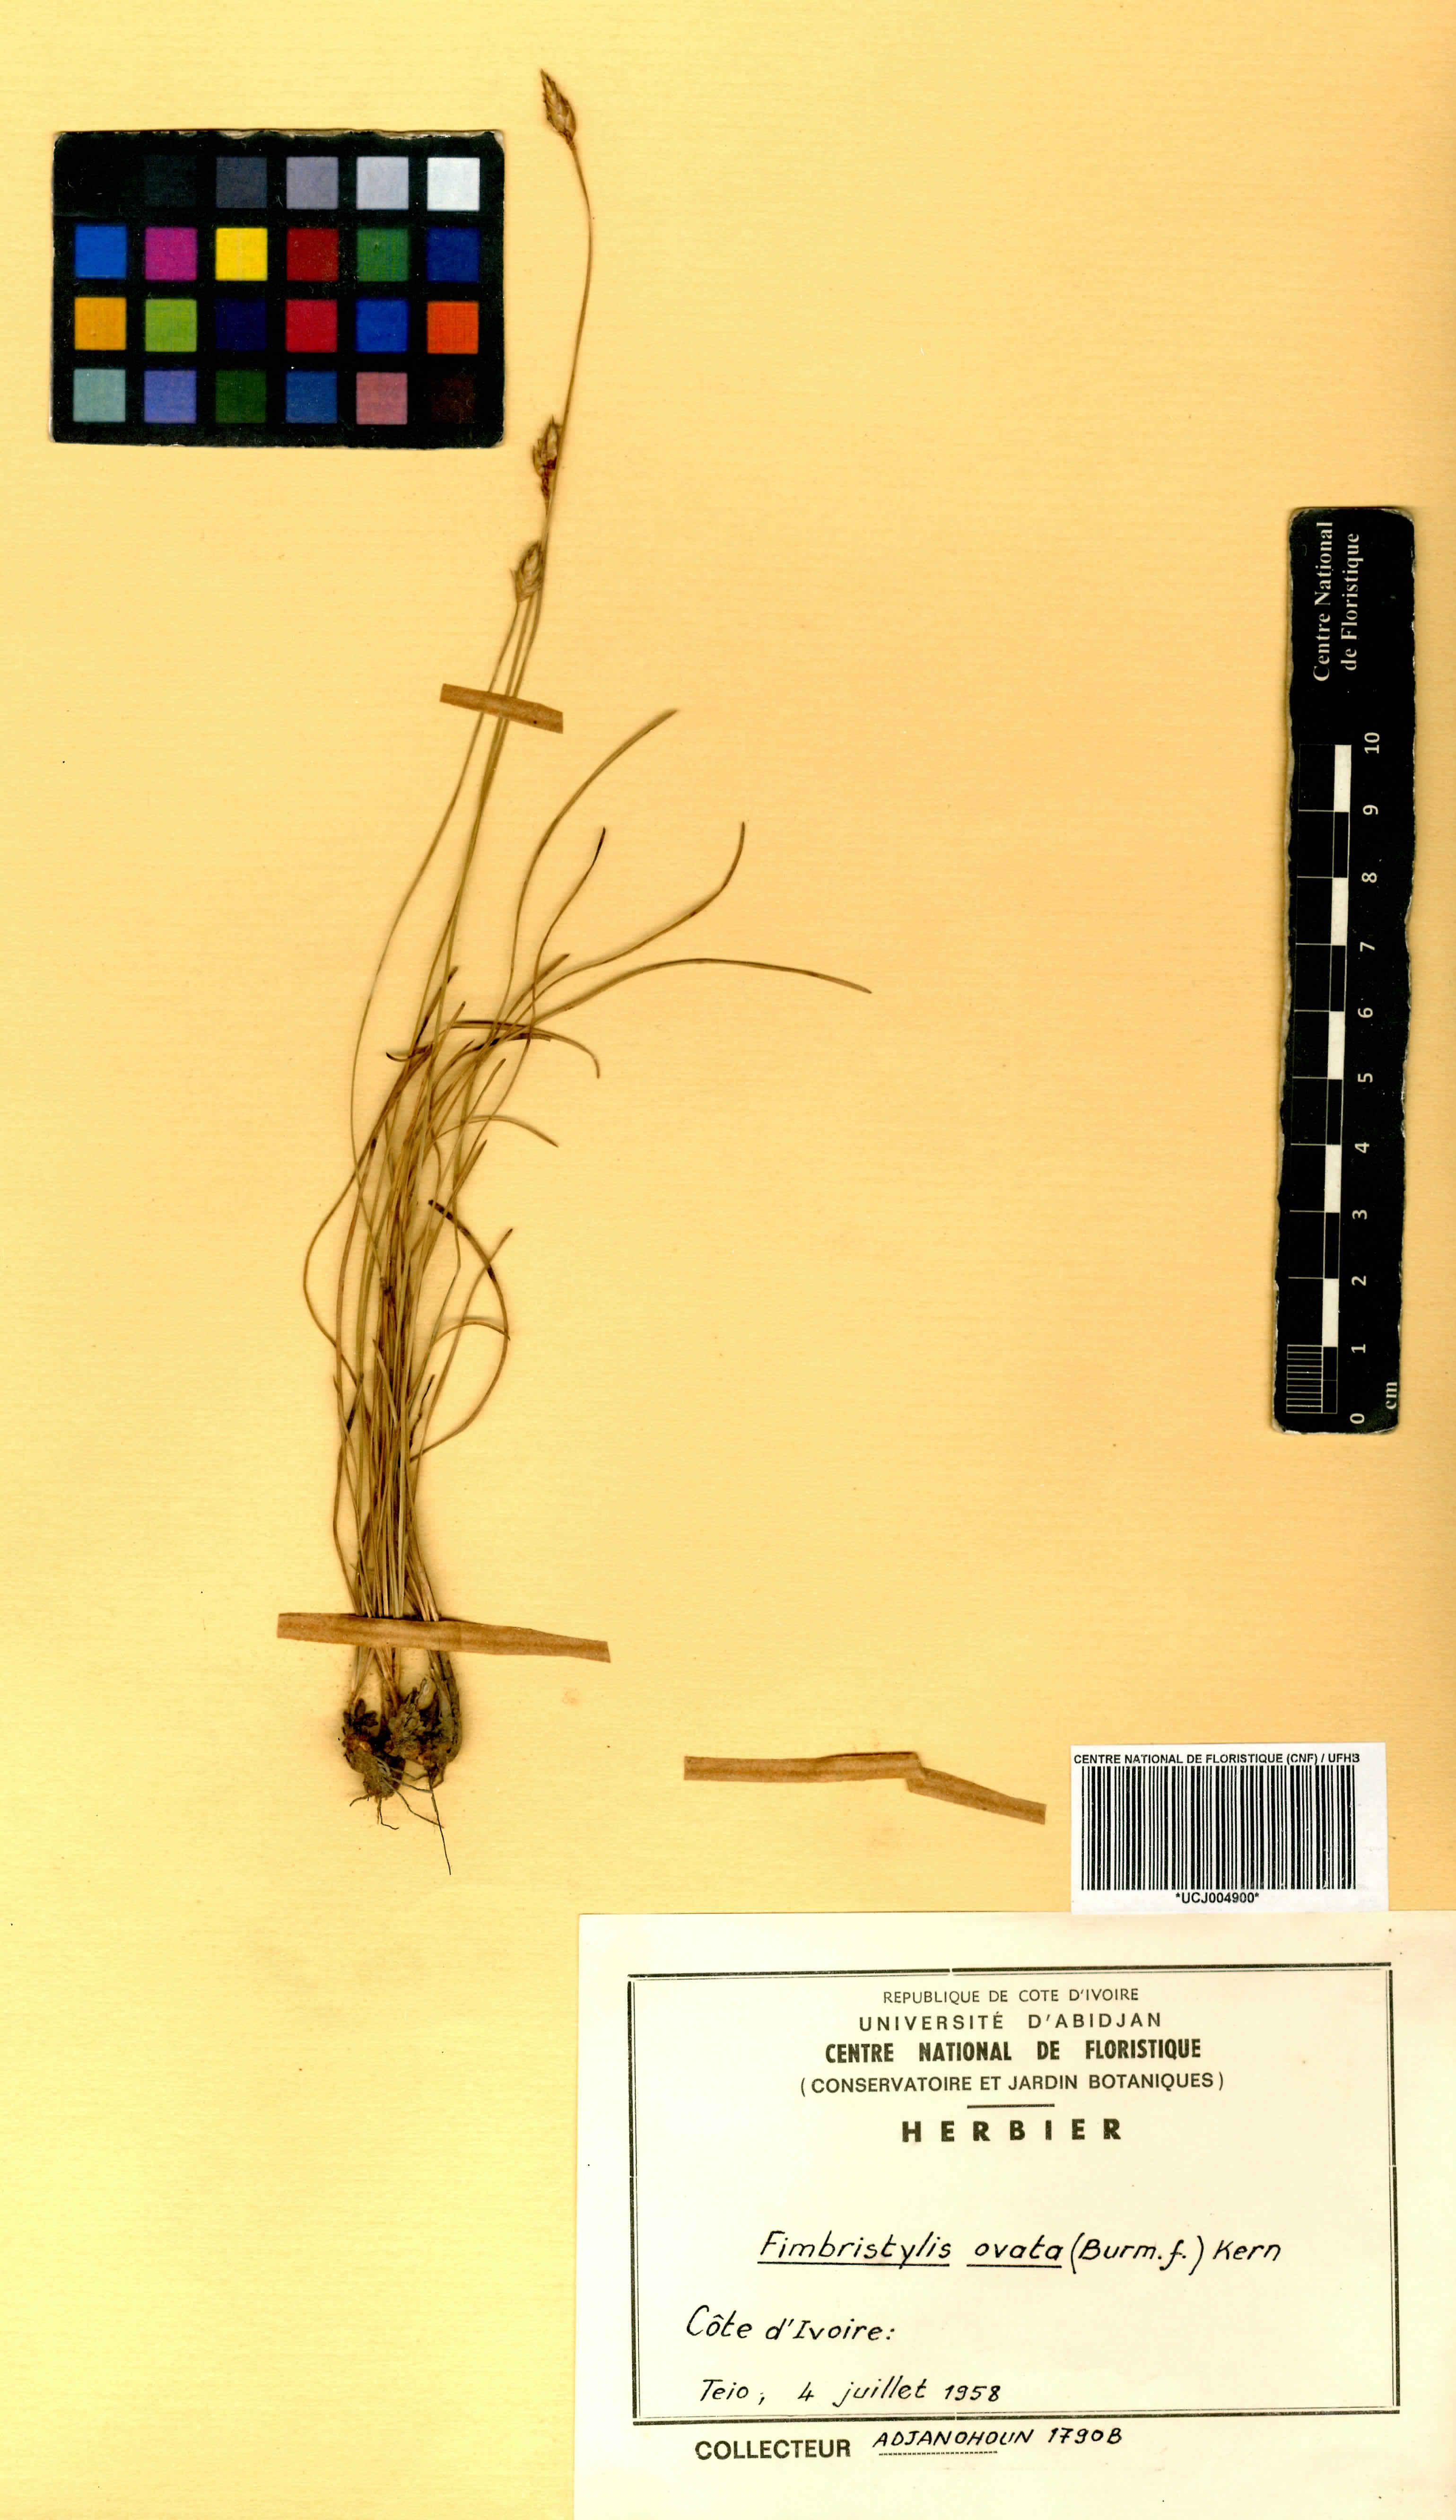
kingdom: Plantae
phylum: Tracheophyta
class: Liliopsida
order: Poales
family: Cyperaceae
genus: Abildgaardia
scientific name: Abildgaardia ovata
